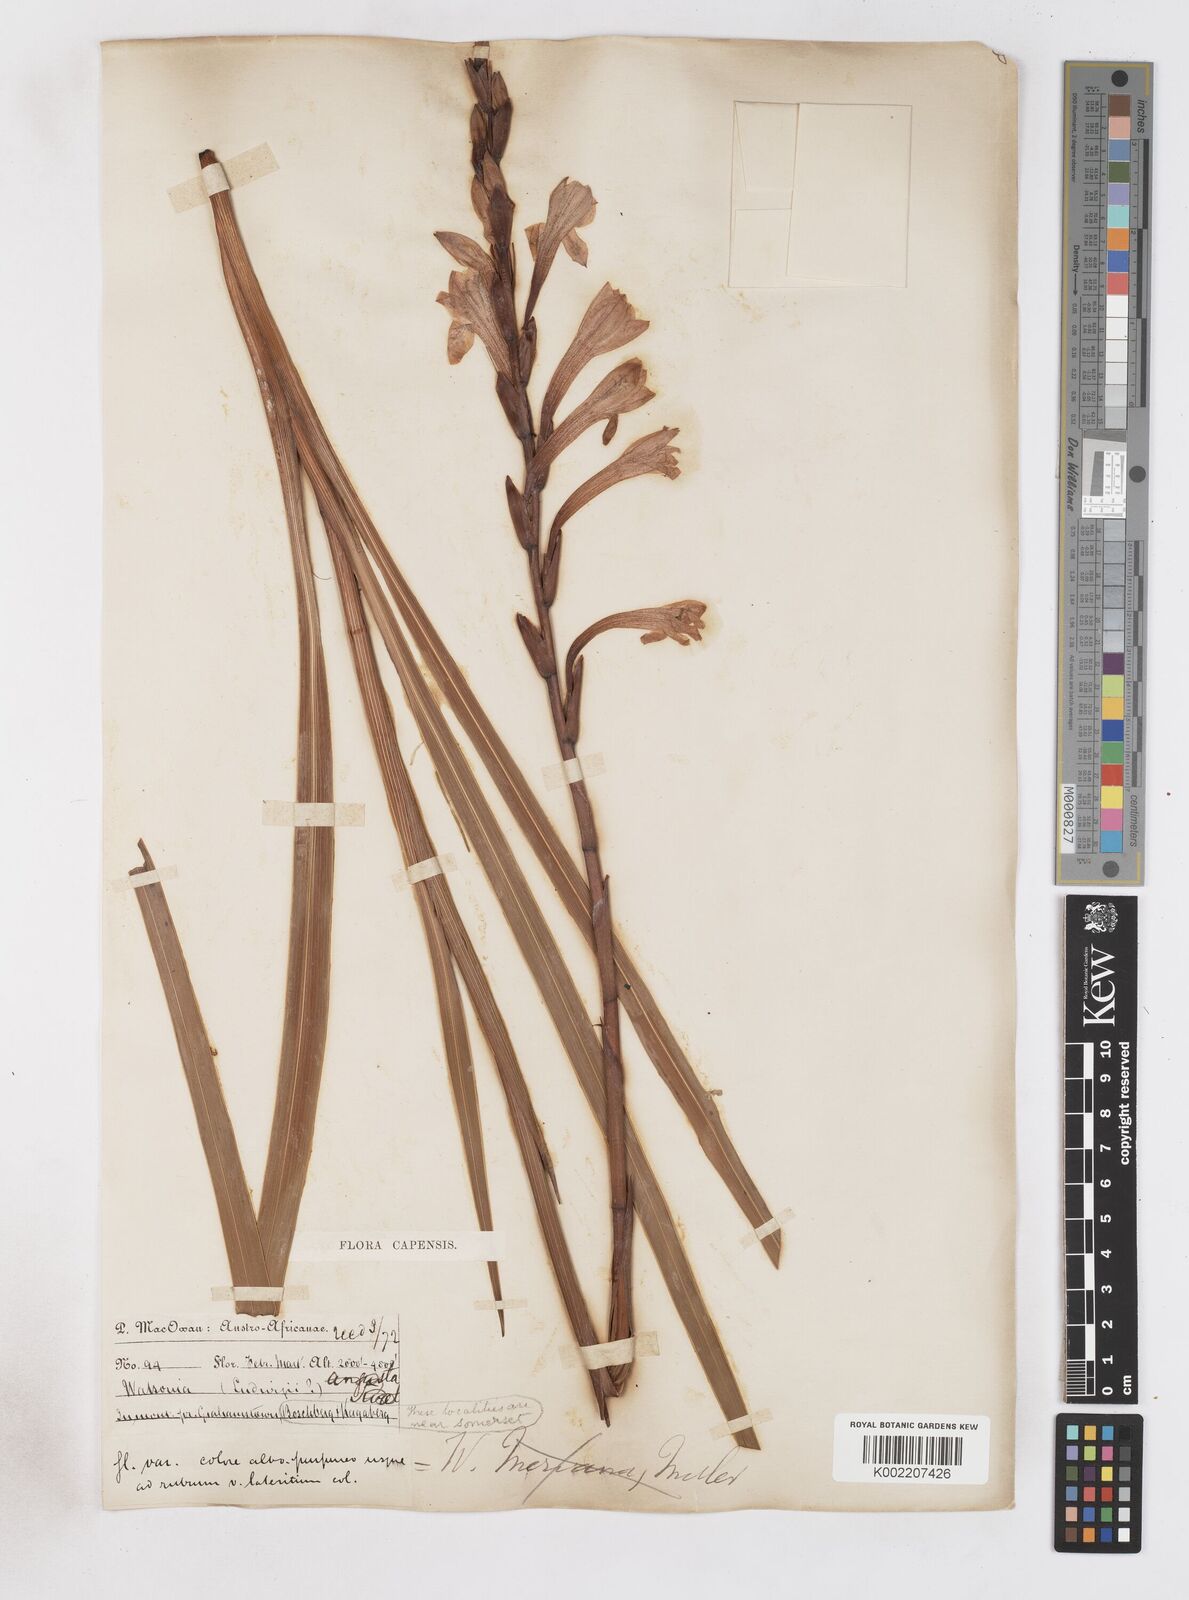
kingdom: Plantae
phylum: Tracheophyta
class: Liliopsida
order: Asparagales
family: Iridaceae
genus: Watsonia
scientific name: Watsonia pillansii
